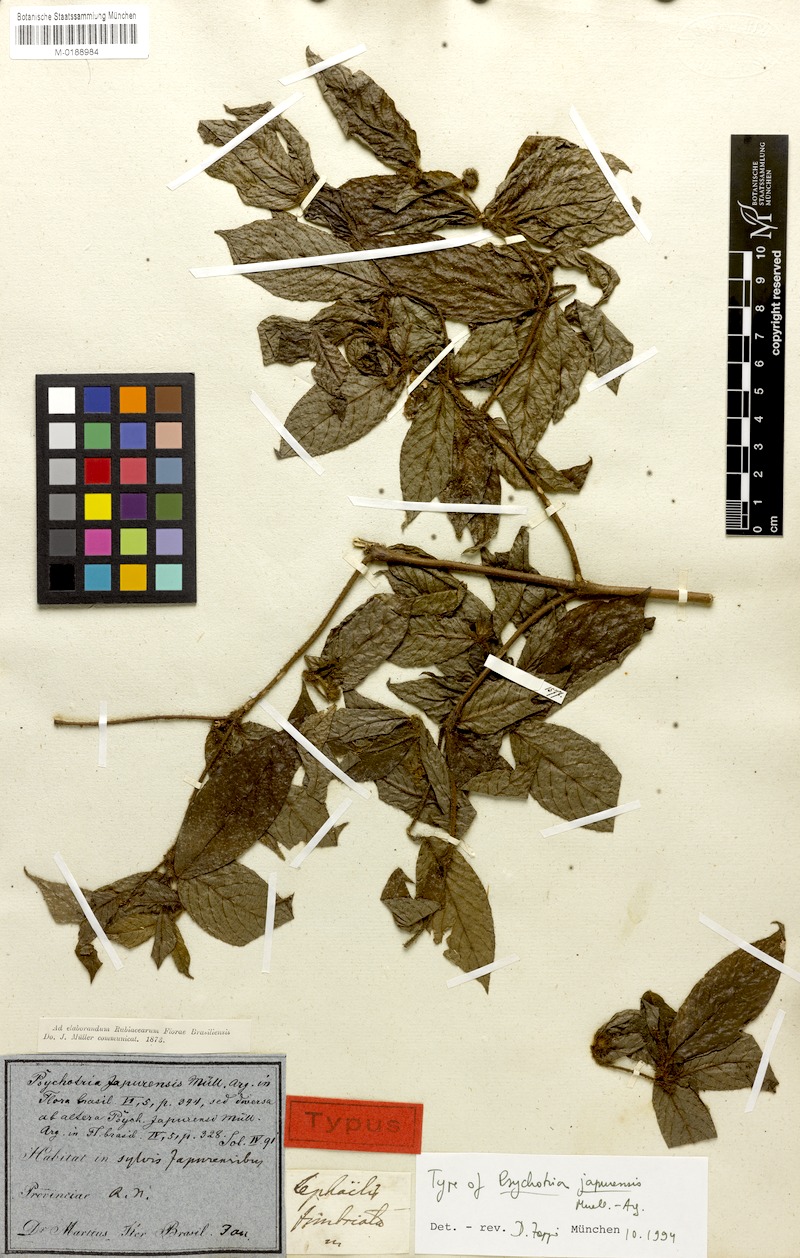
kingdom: Plantae
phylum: Tracheophyta
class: Magnoliopsida
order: Gentianales
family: Rubiaceae
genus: Palicourea
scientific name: Palicourea iodotricha
